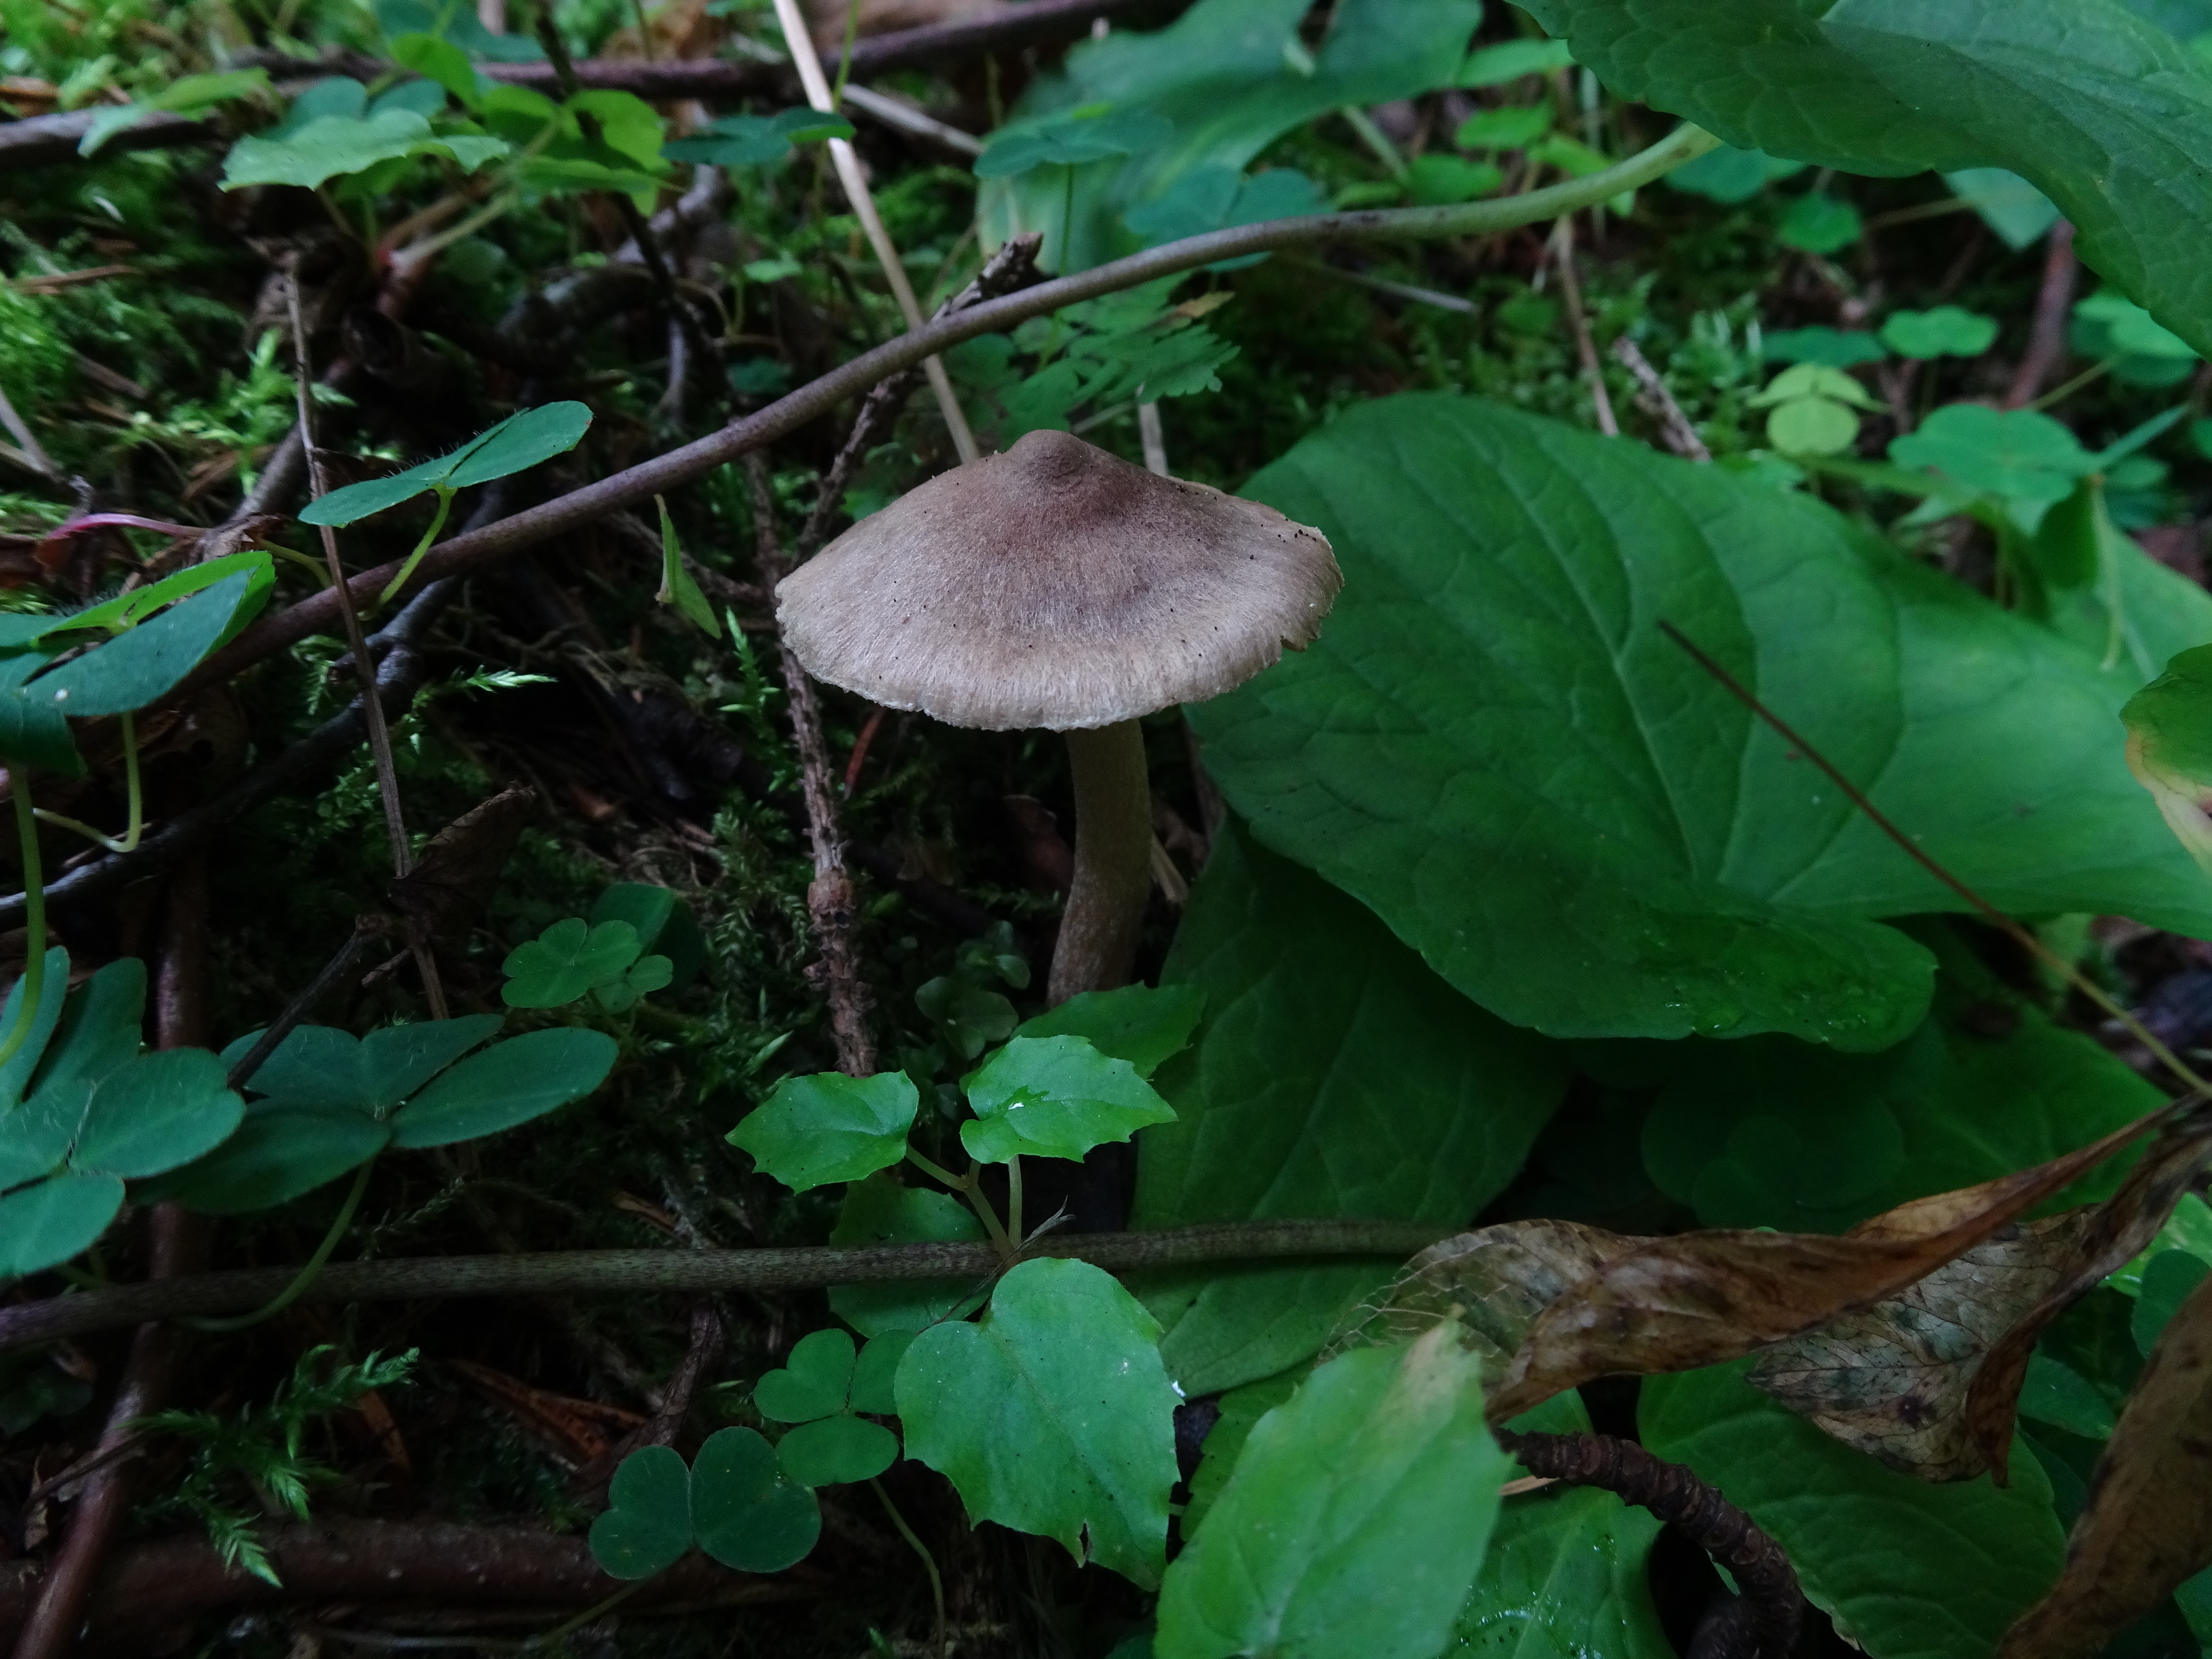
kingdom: Fungi
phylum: Basidiomycota
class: Agaricomycetes
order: Agaricales
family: Inocybaceae
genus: Inocybe
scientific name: Inocybe
